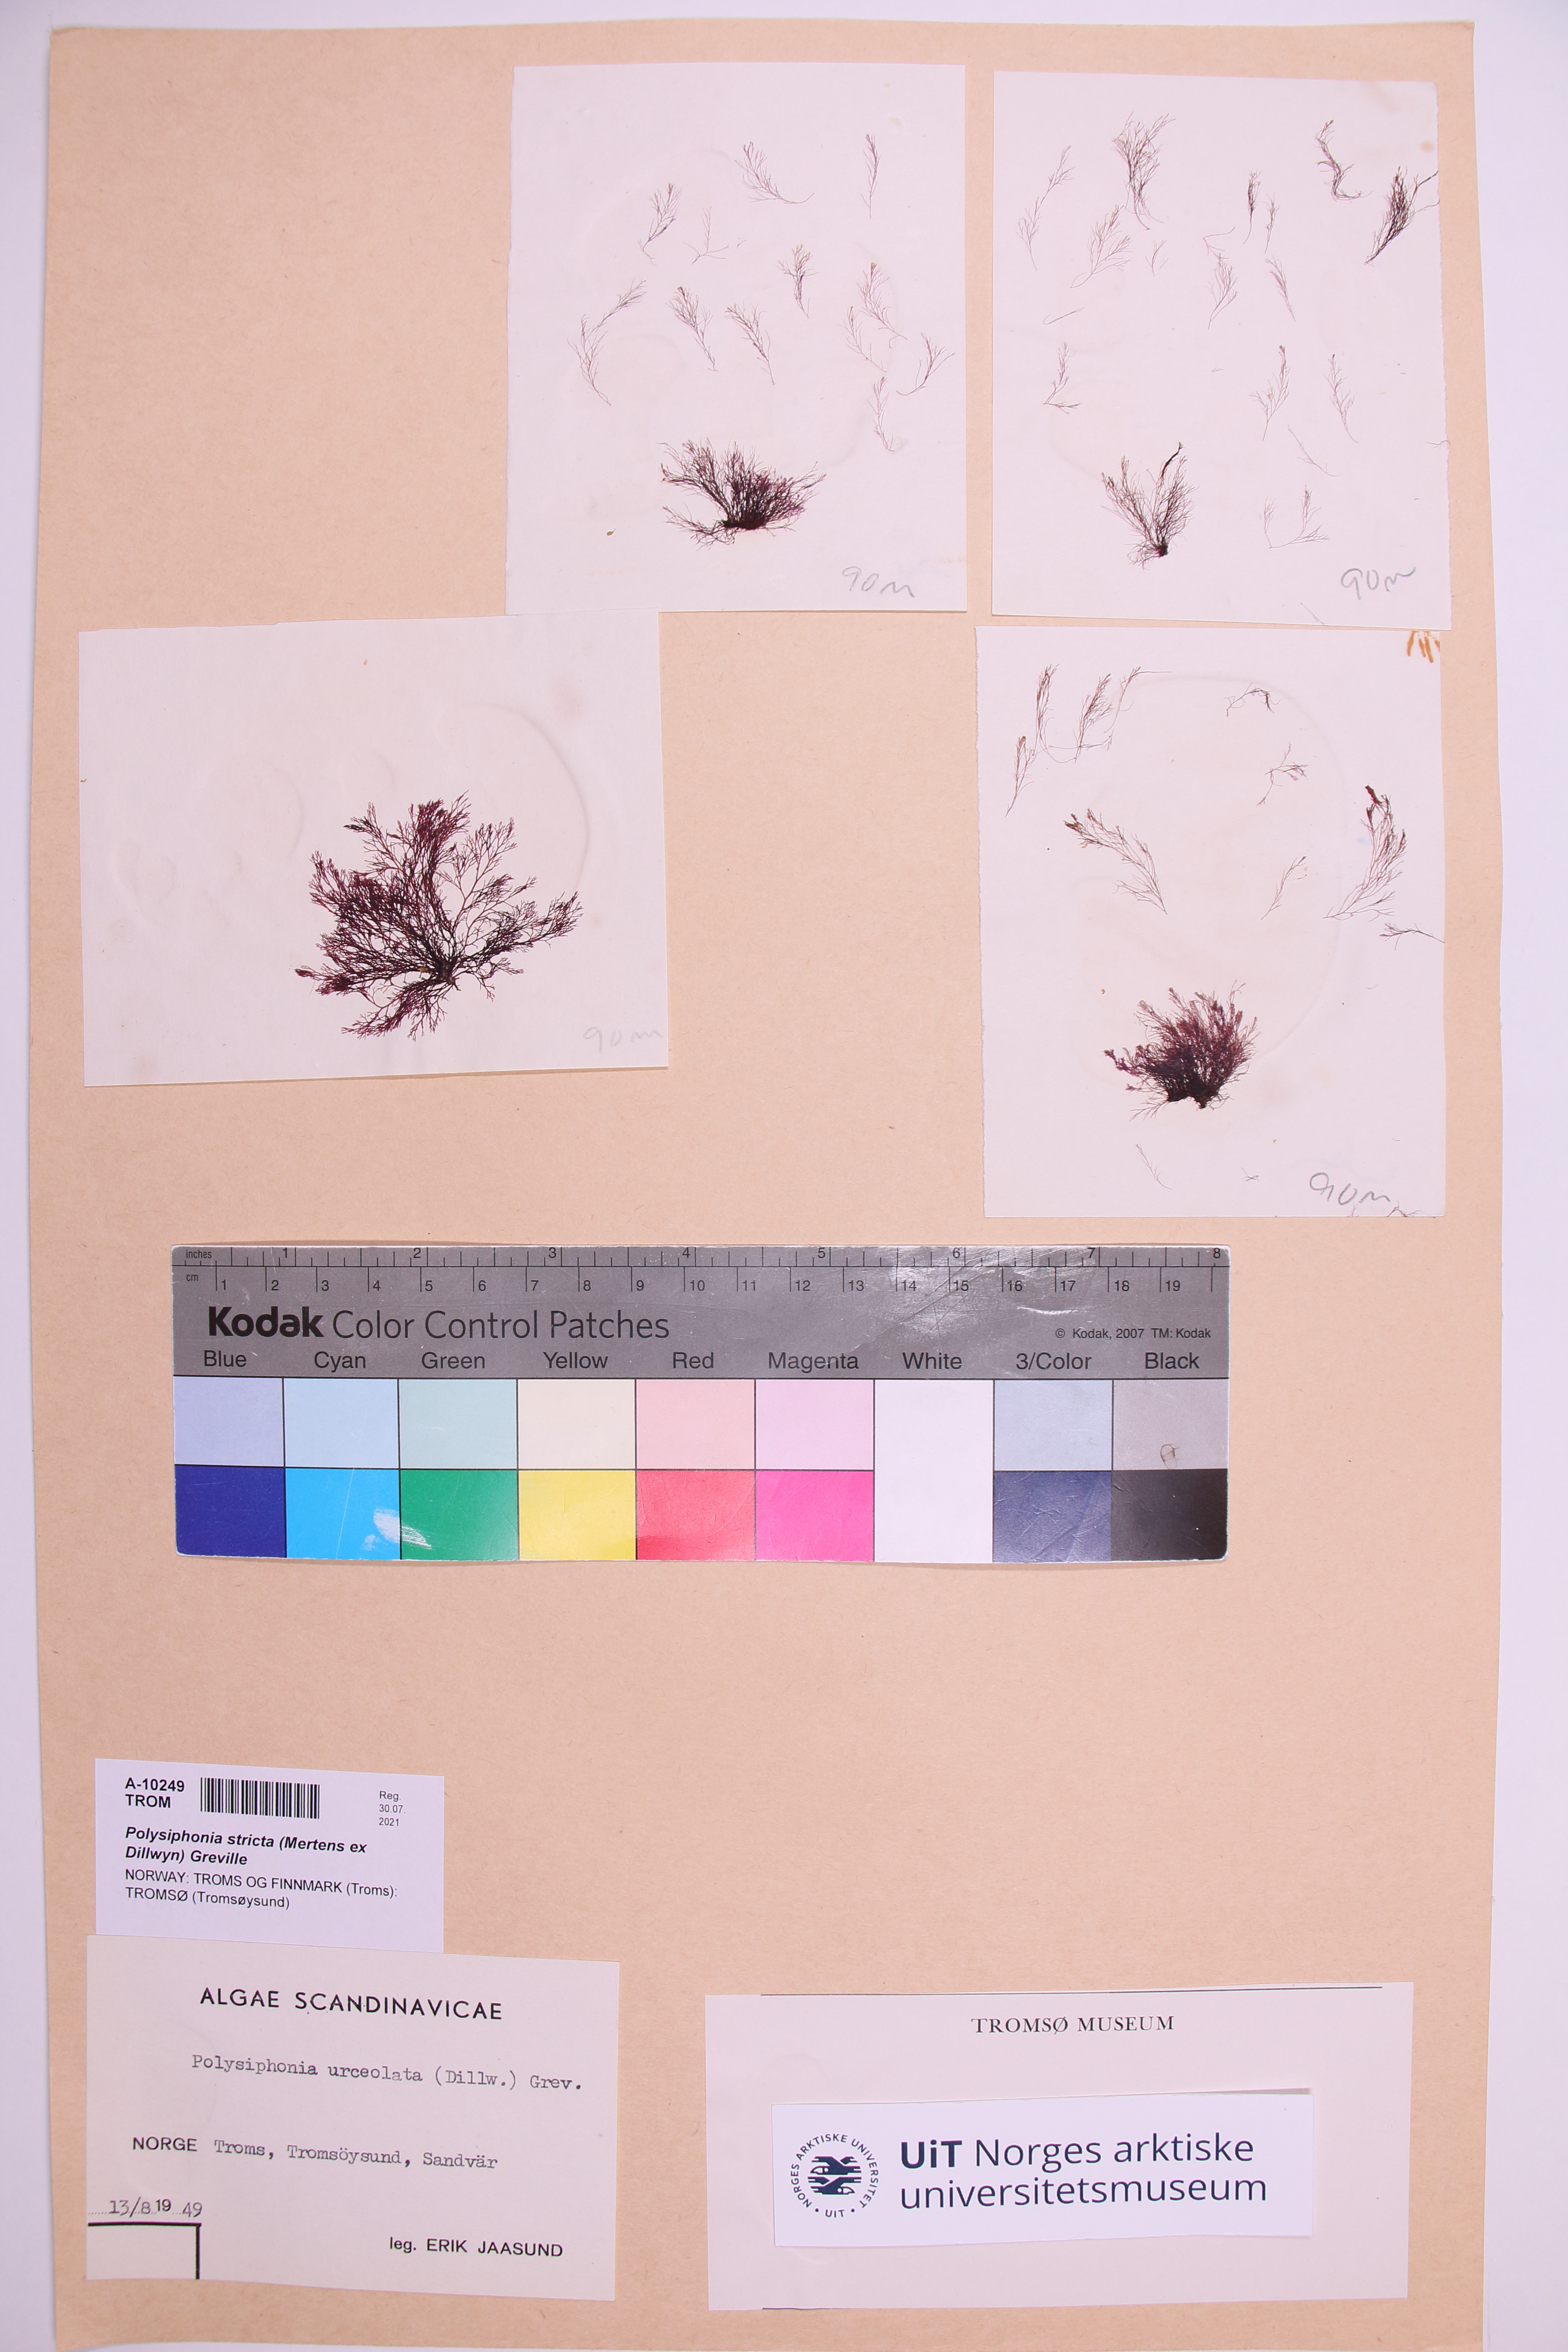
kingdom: Plantae
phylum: Rhodophyta
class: Florideophyceae
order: Ceramiales
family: Rhodomelaceae
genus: Polysiphonia
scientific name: Polysiphonia stricta
